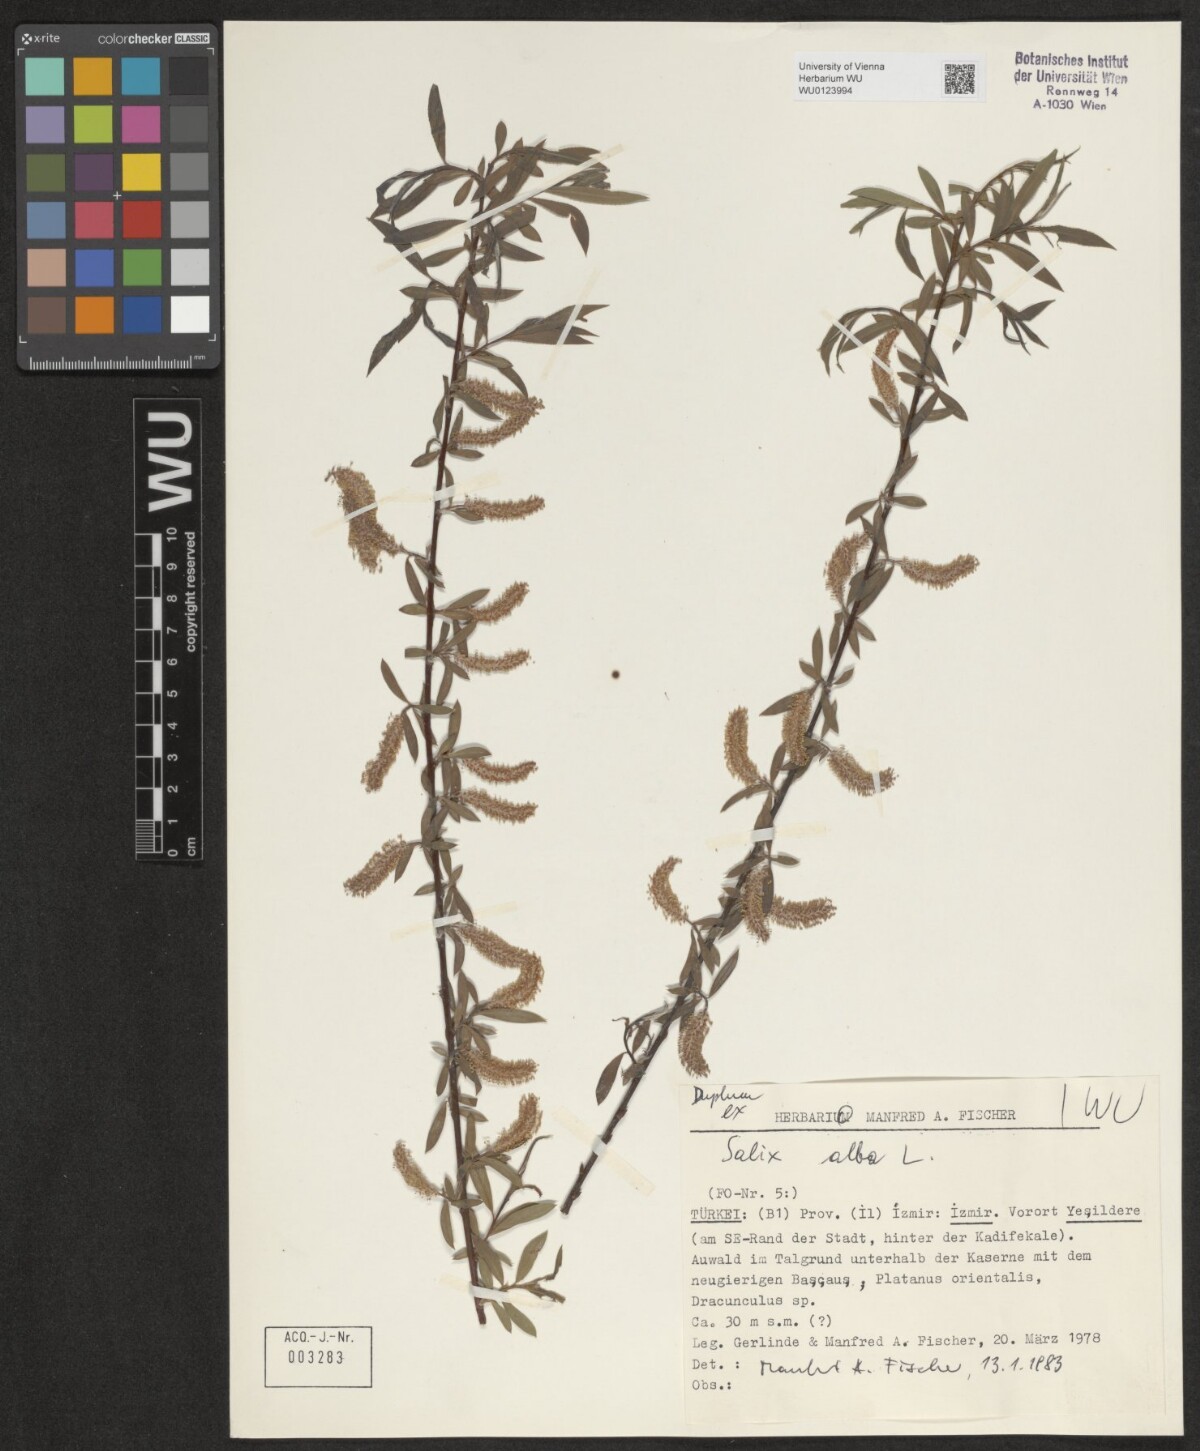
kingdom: Plantae
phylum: Tracheophyta
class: Magnoliopsida
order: Malpighiales
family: Salicaceae
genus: Salix
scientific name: Salix alba
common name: White willow
